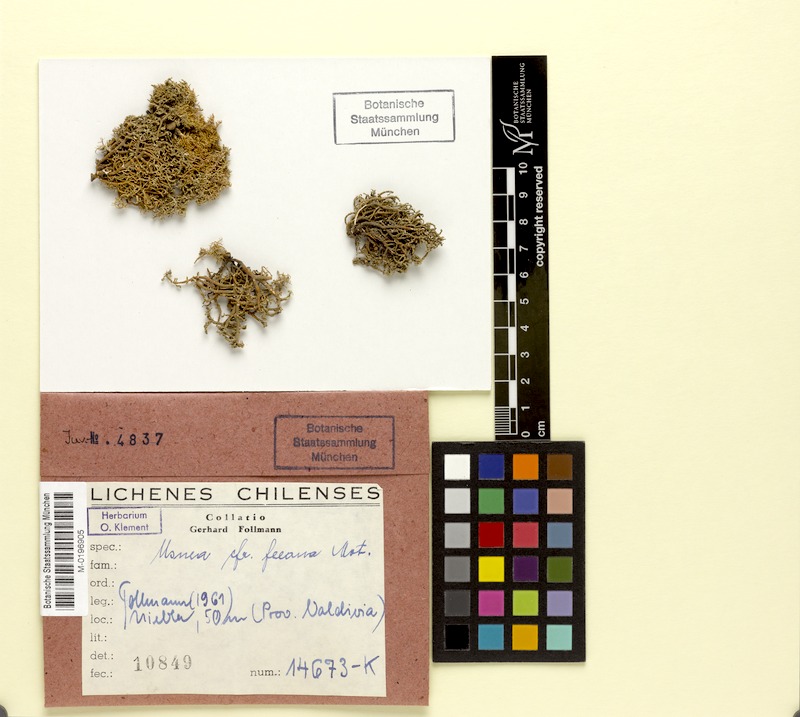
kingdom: Fungi
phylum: Ascomycota
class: Lecanoromycetes
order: Lecanorales
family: Parmeliaceae
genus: Usnea
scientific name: Usnea
